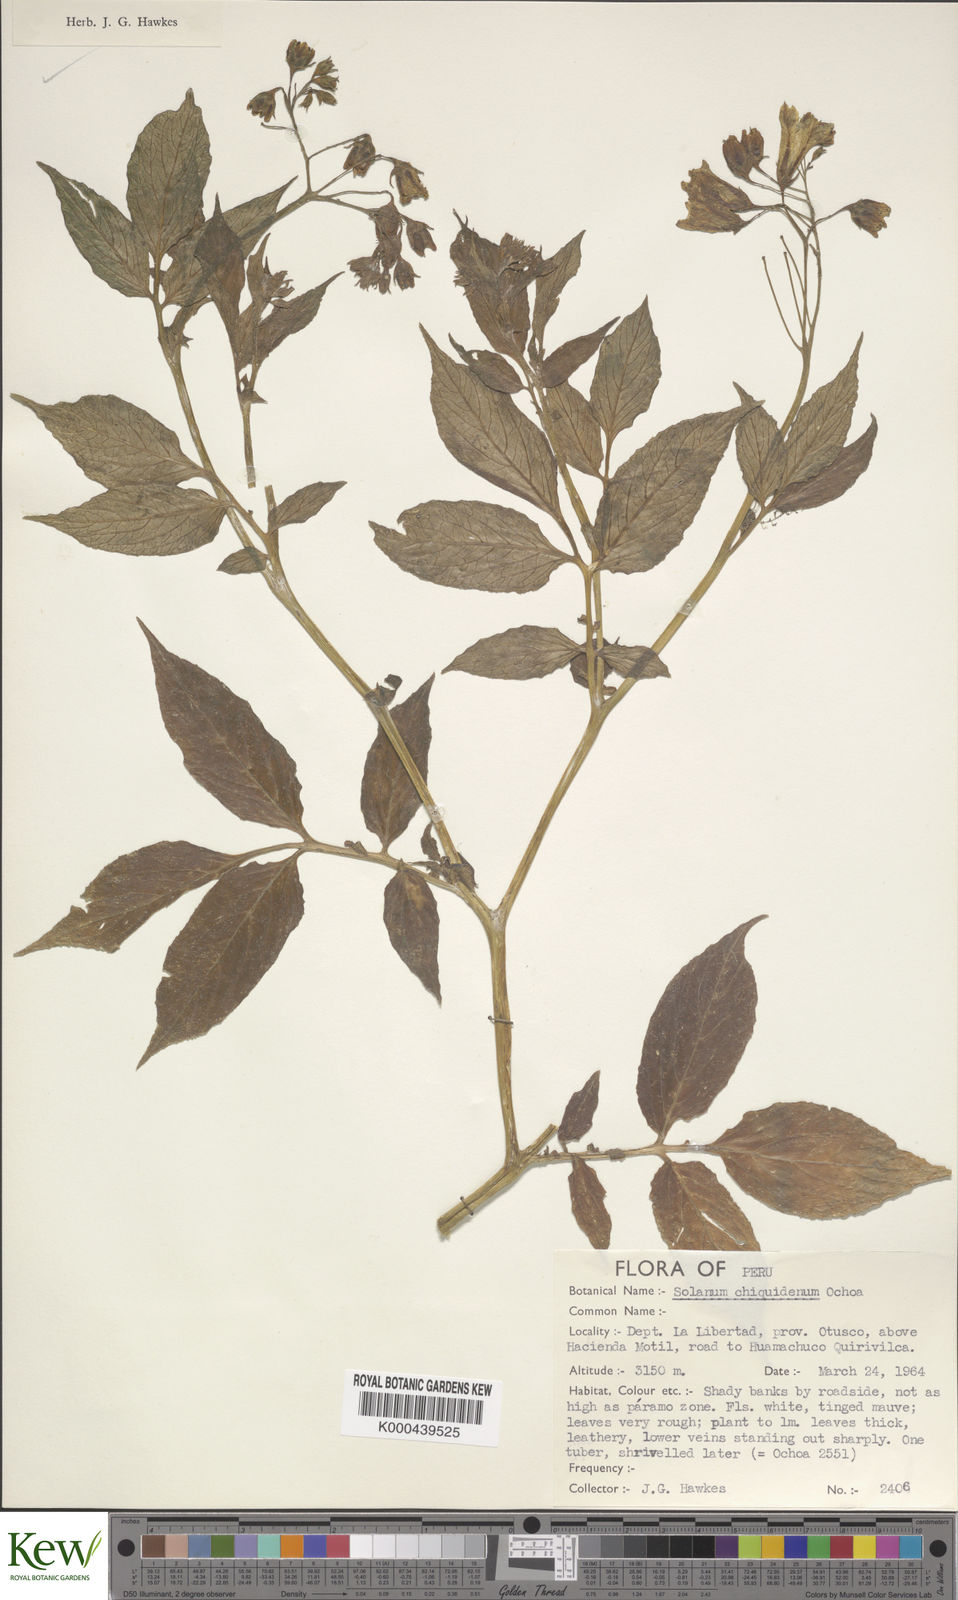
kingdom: Plantae
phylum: Tracheophyta
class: Magnoliopsida
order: Solanales
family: Solanaceae
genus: Solanum
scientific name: Solanum chiquidenum
